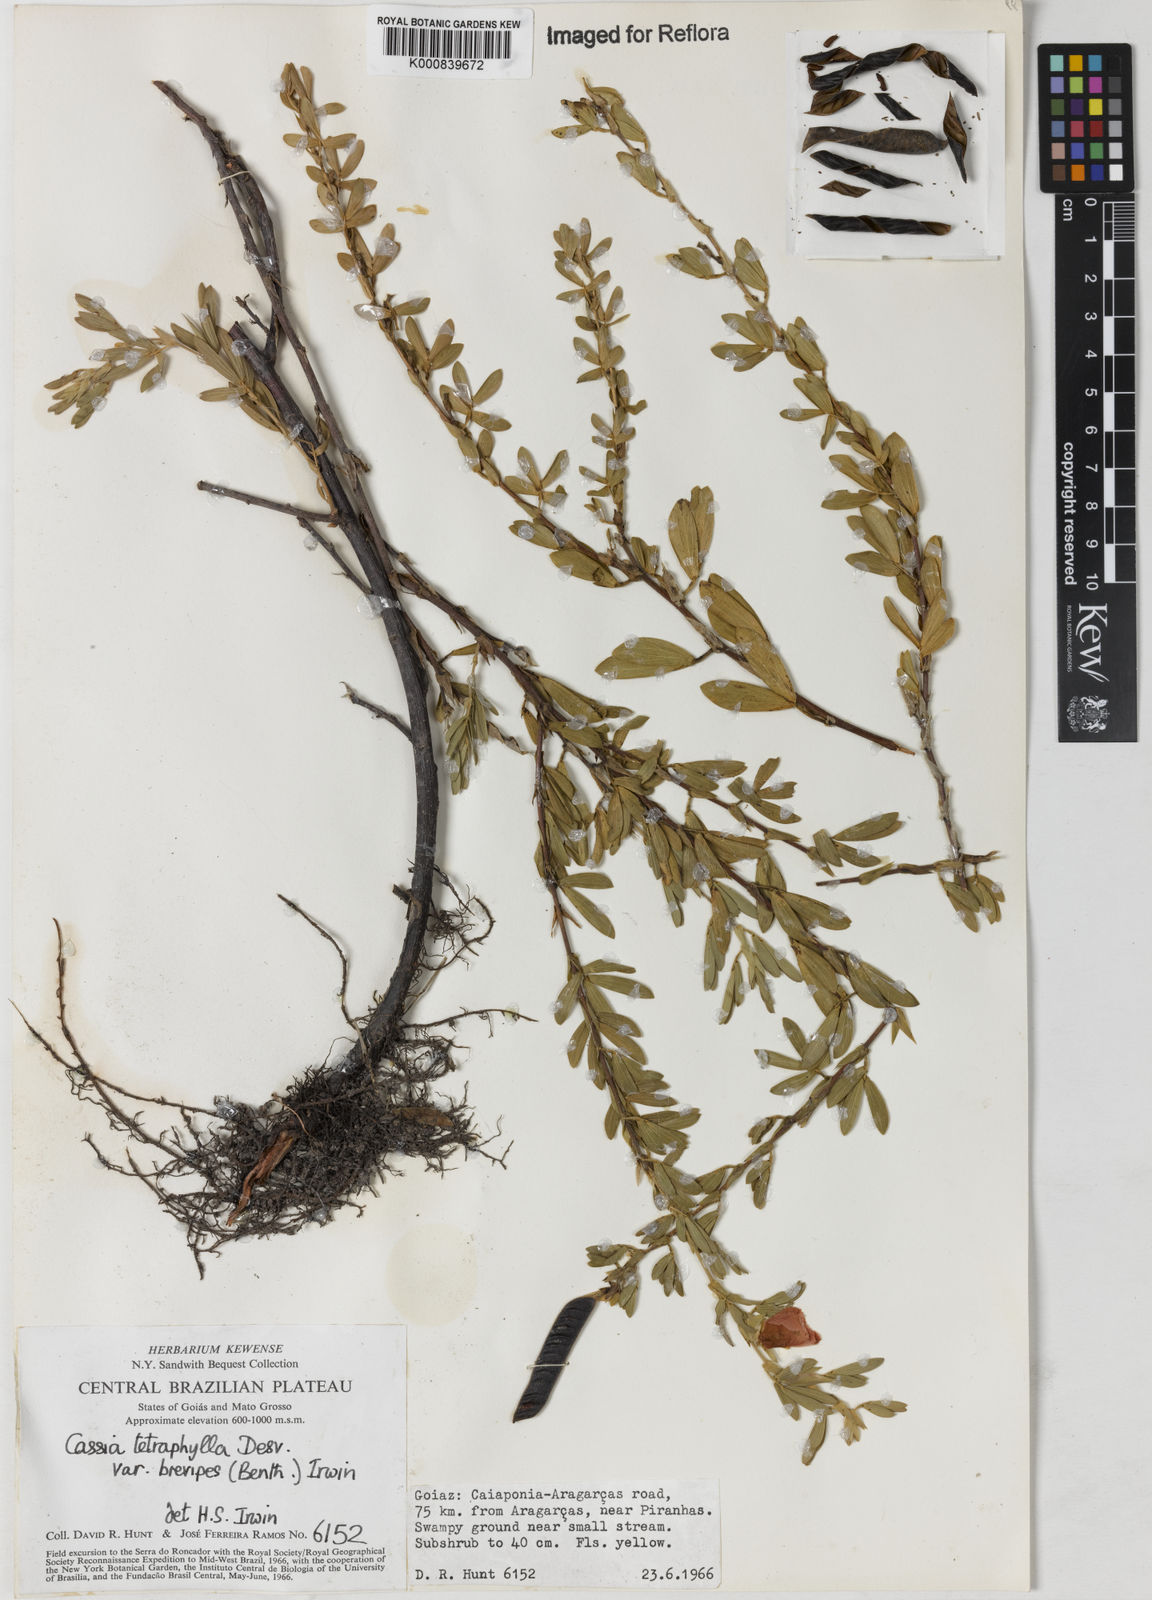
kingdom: Plantae
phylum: Tracheophyta
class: Magnoliopsida
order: Fabales
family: Fabaceae
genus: Chamaecrista
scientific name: Chamaecrista desvauxii
